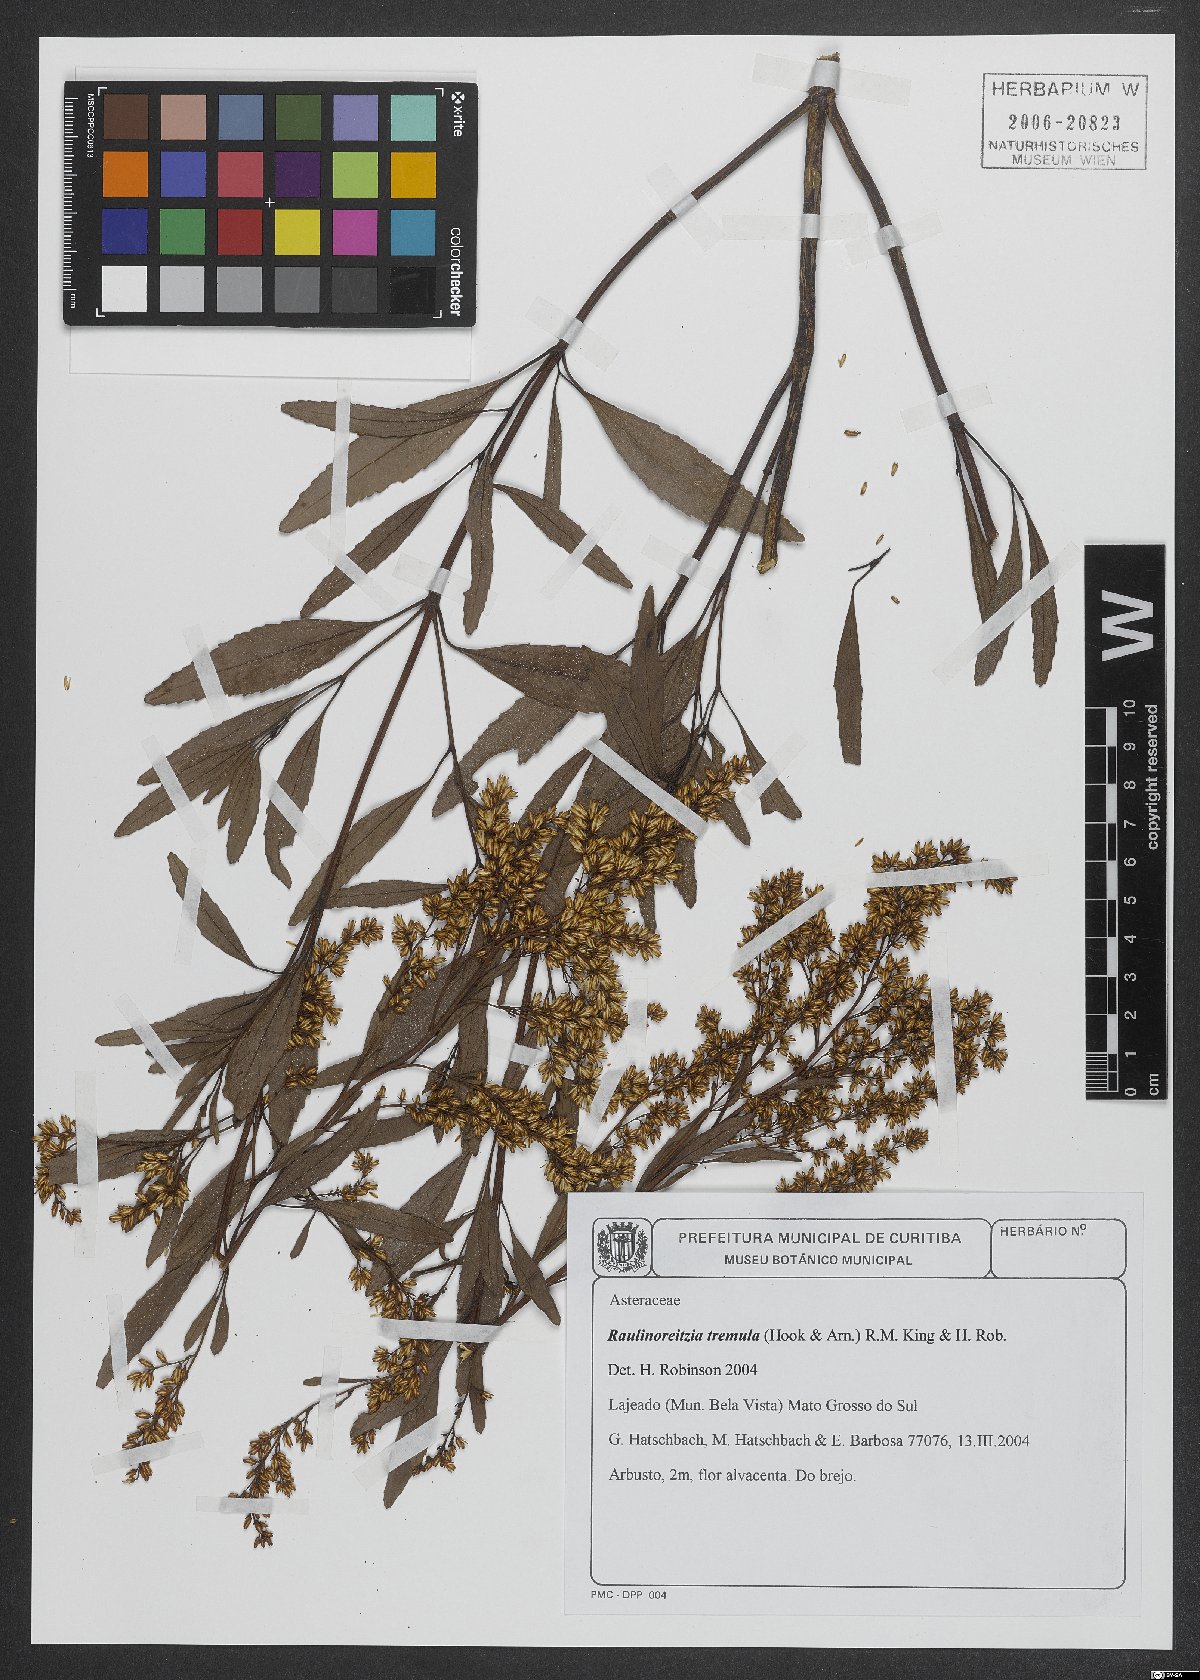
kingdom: Plantae
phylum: Tracheophyta
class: Magnoliopsida
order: Asterales
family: Asteraceae
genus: Raulinoreitzia
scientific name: Raulinoreitzia tremula
